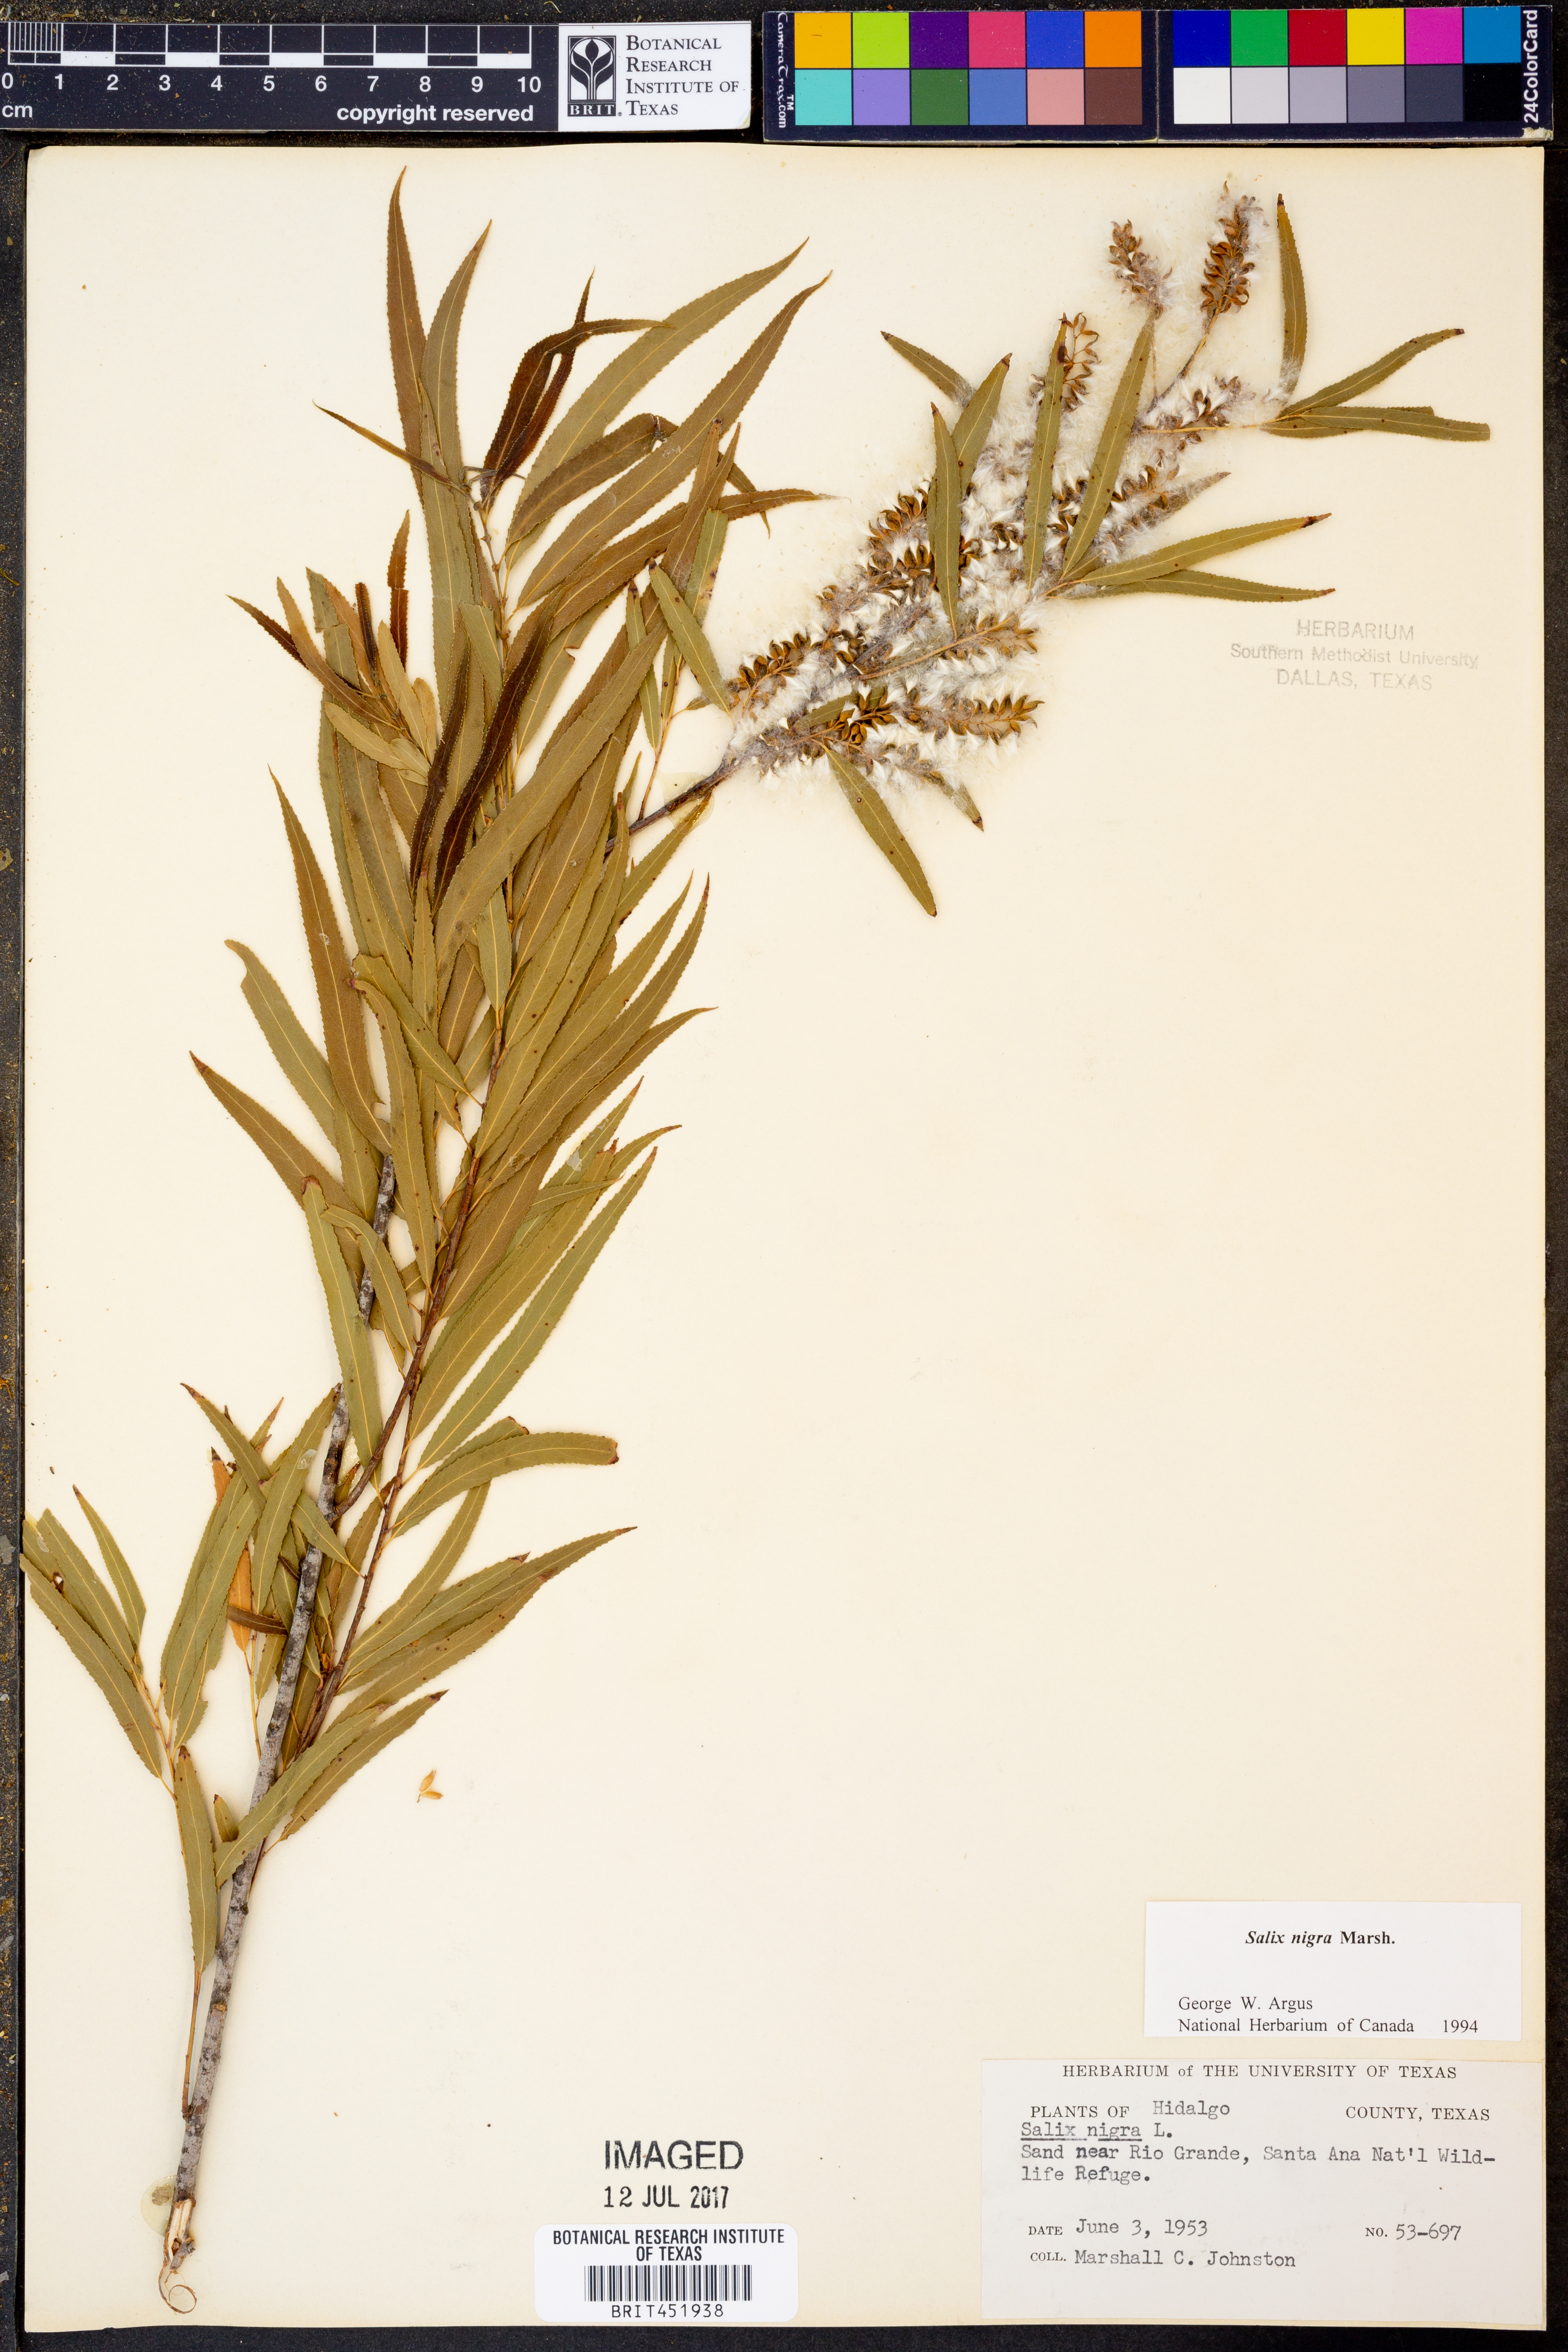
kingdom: Plantae
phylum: Tracheophyta
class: Magnoliopsida
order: Malpighiales
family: Salicaceae
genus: Salix
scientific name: Salix nigra
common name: Black willow
